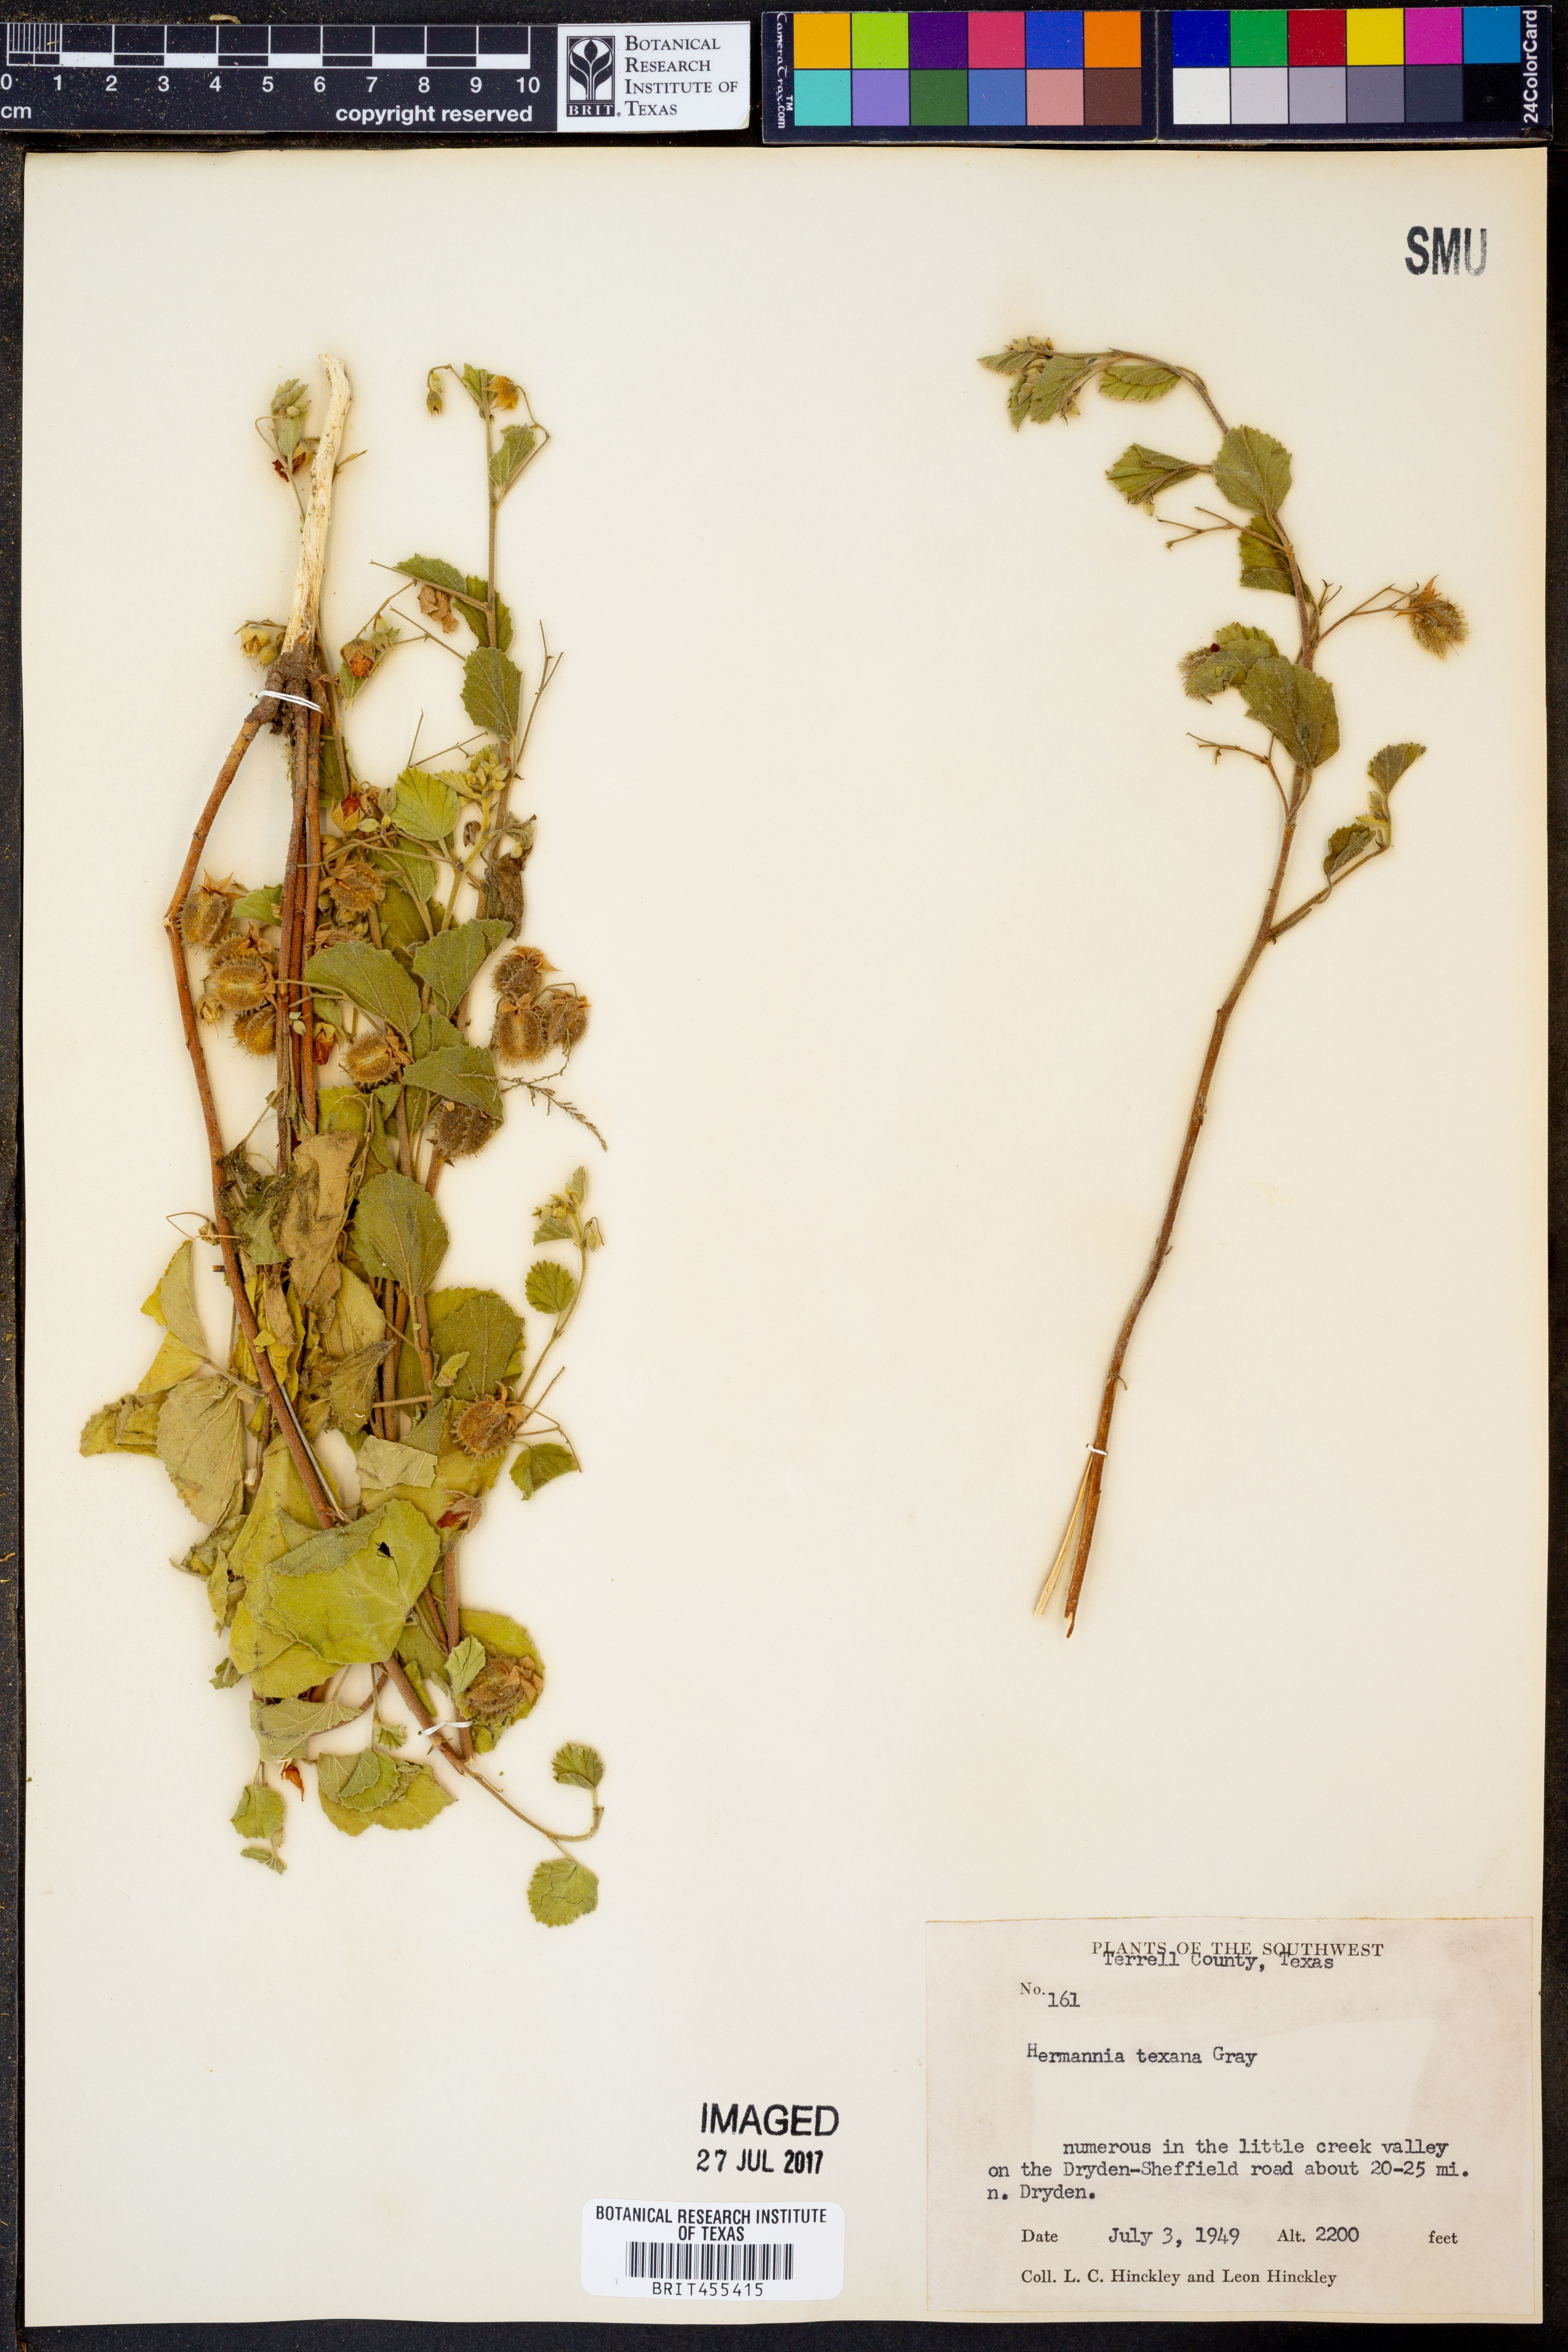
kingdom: Plantae
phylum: Tracheophyta
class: Magnoliopsida
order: Malvales
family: Malvaceae
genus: Hermannia
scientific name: Hermannia texana
